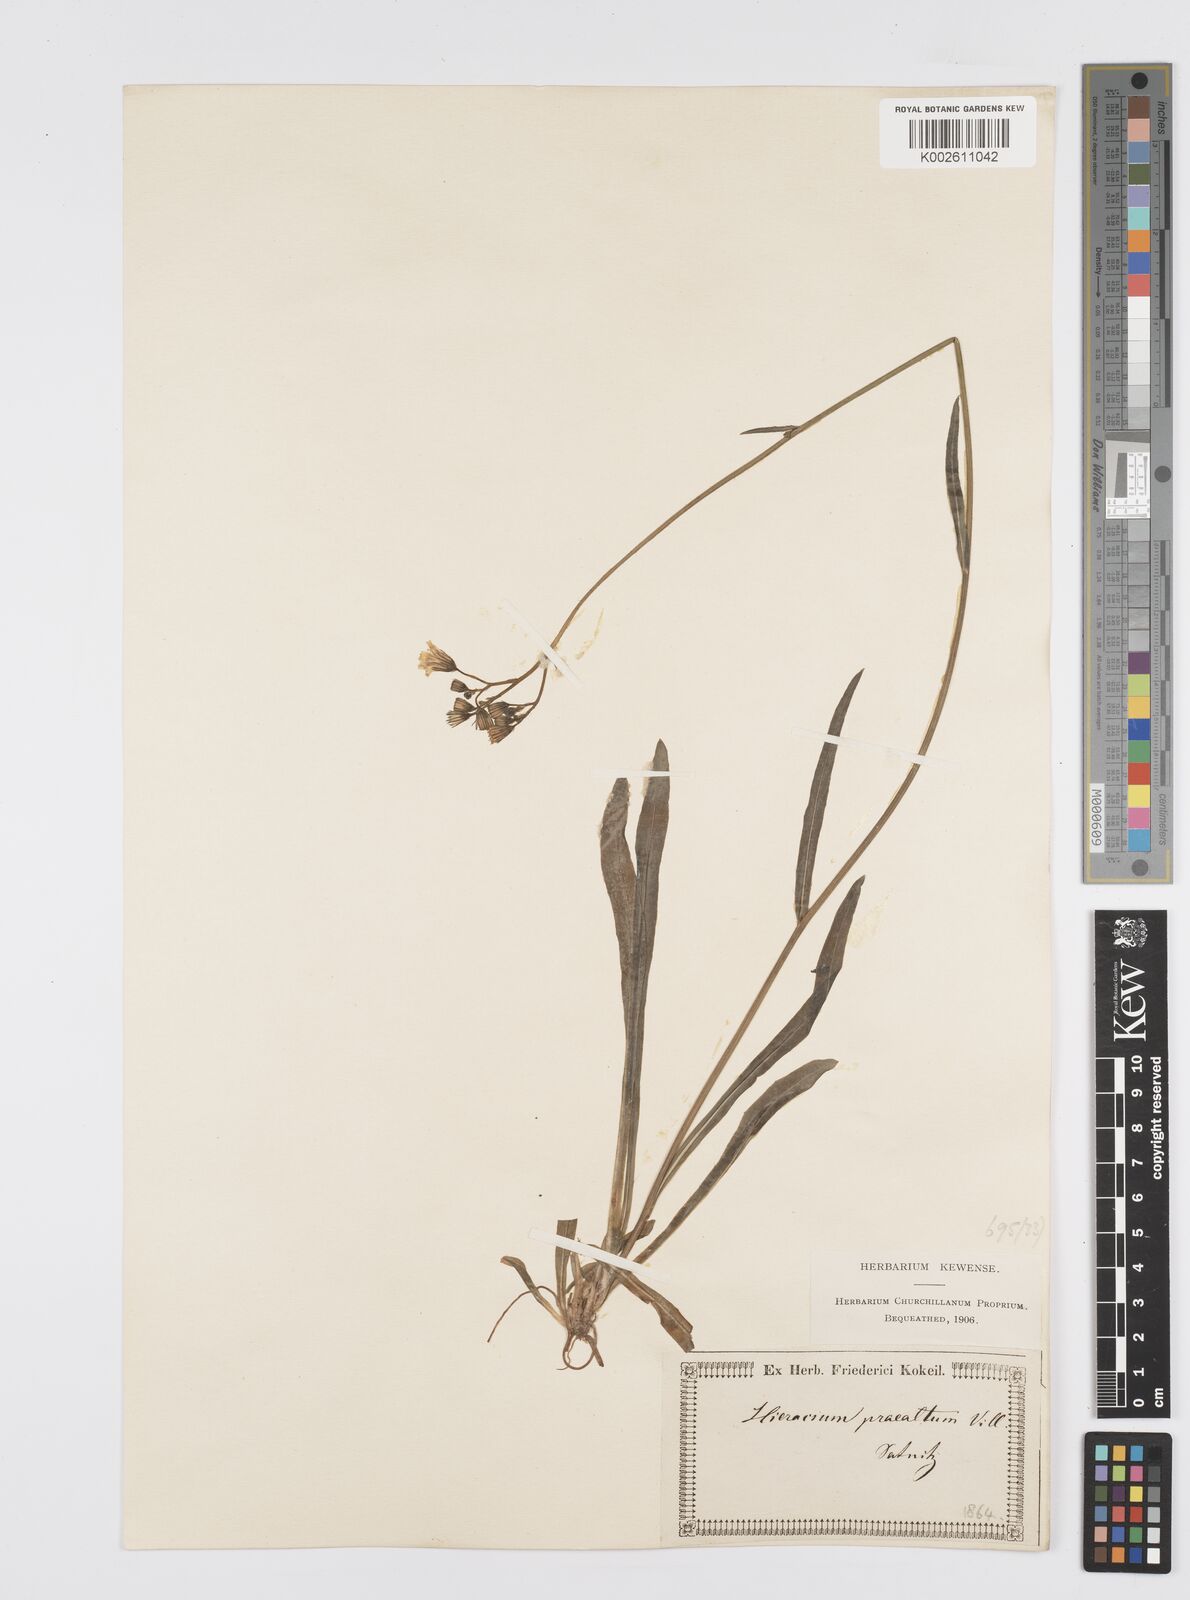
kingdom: Plantae
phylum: Tracheophyta
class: Magnoliopsida
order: Asterales
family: Asteraceae
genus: Pilosella
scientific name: Pilosella piloselloides
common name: Glaucous king-devil
